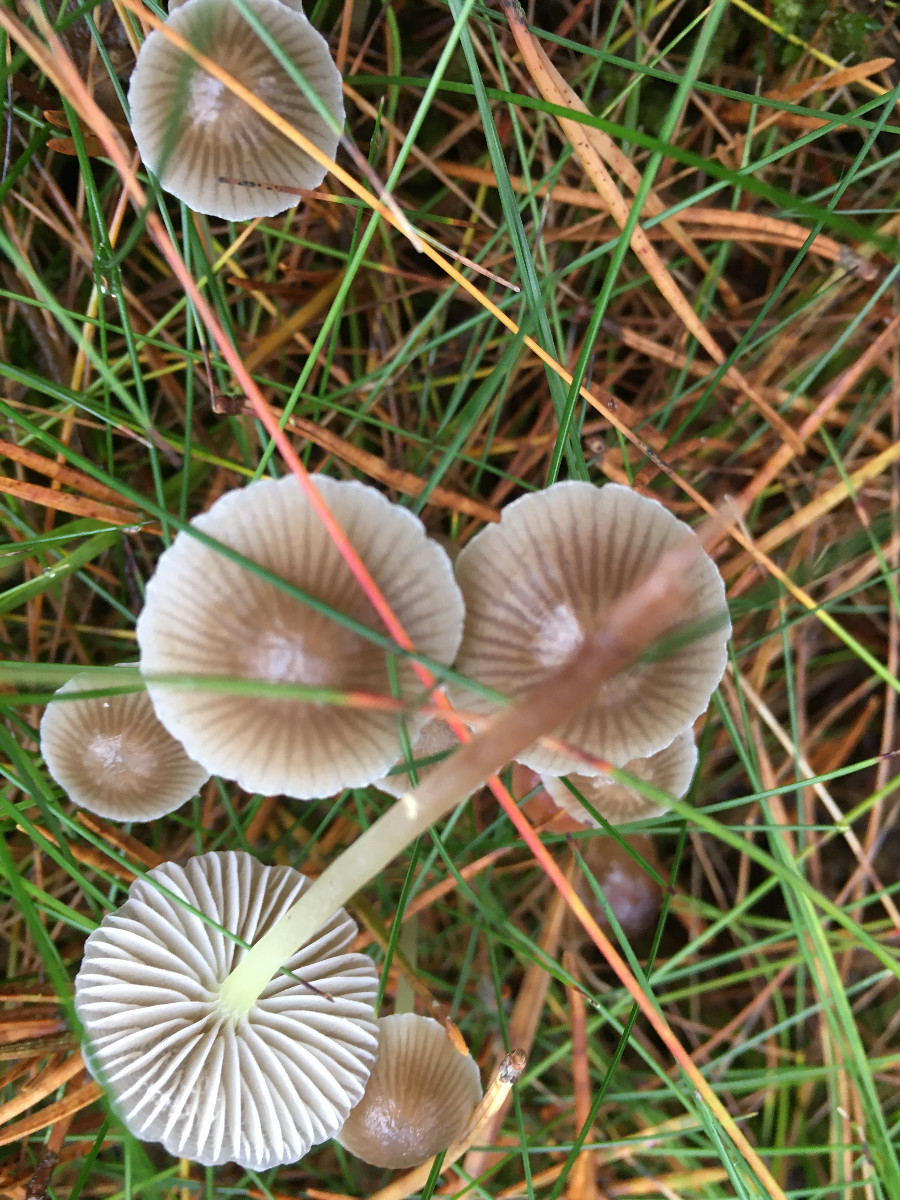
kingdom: Fungi
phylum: Basidiomycota
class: Agaricomycetes
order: Agaricales
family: Mycenaceae
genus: Mycena
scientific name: Mycena epipterygia
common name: Yellowleg bonnet
